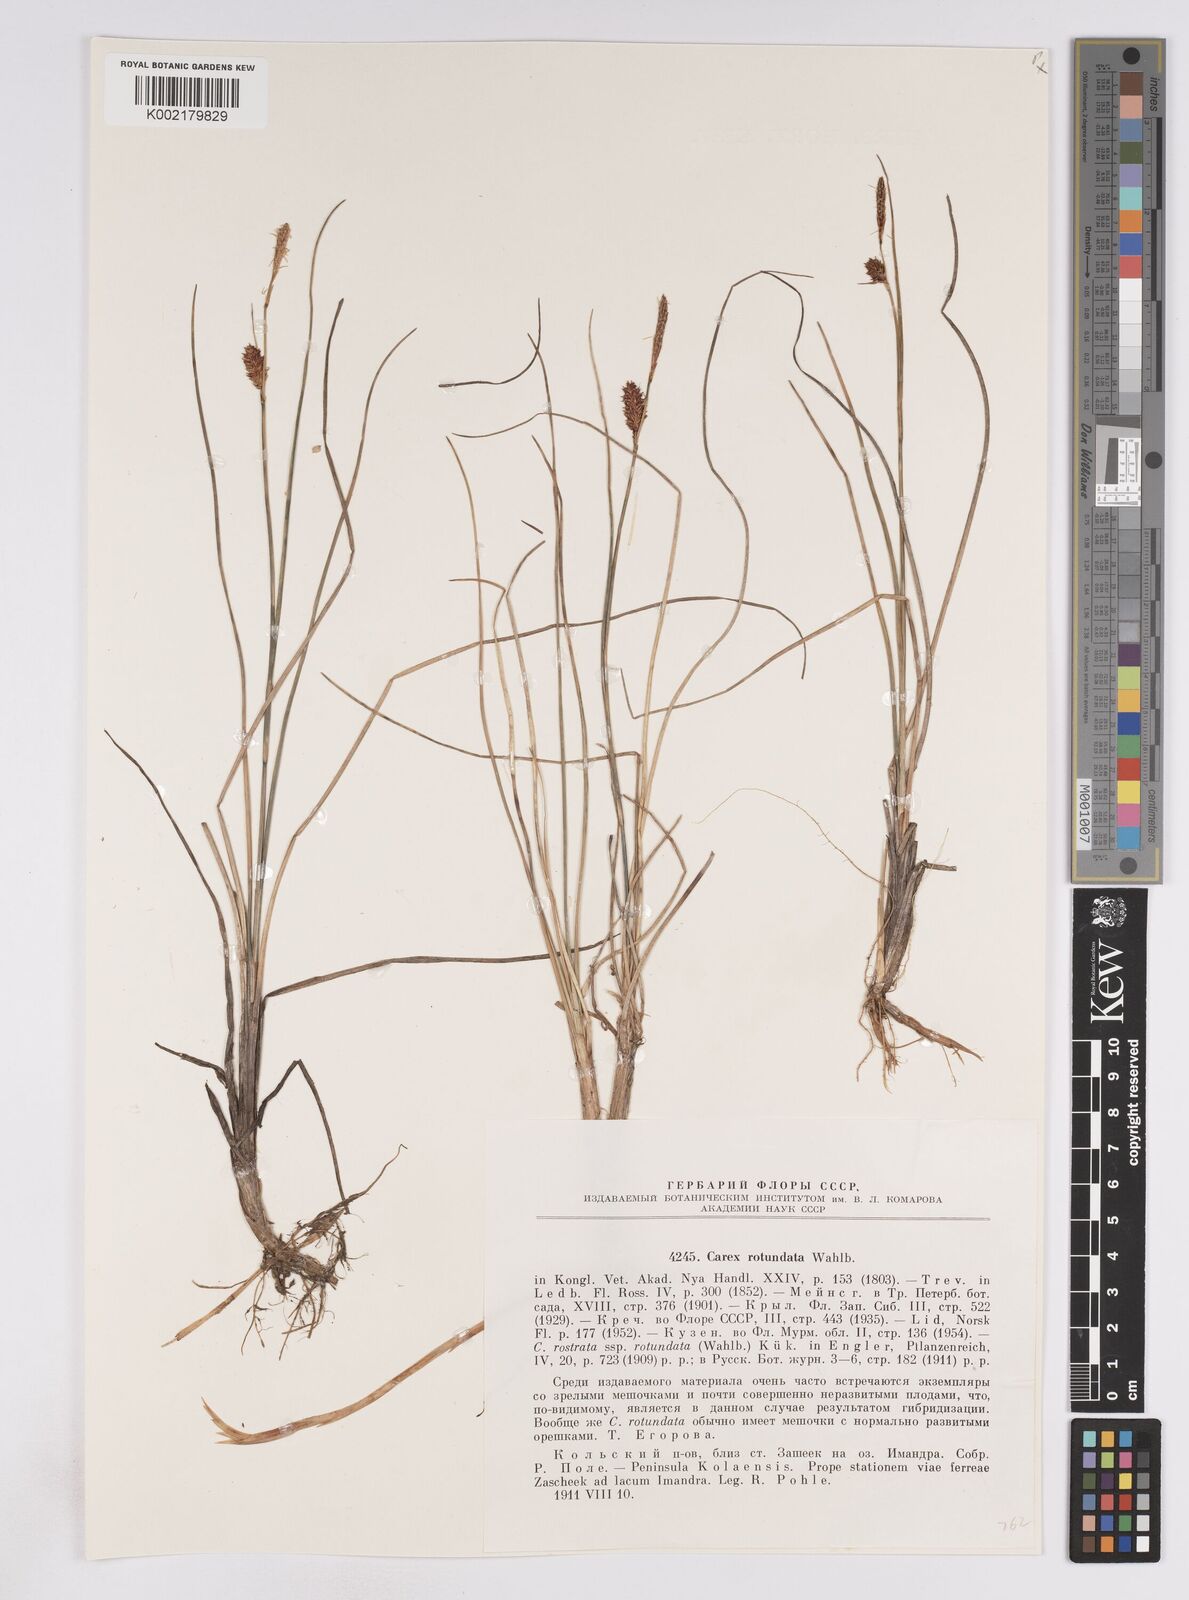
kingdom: Plantae
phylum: Tracheophyta
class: Liliopsida
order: Poales
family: Cyperaceae
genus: Carex
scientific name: Carex rostrata
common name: Bottle sedge
